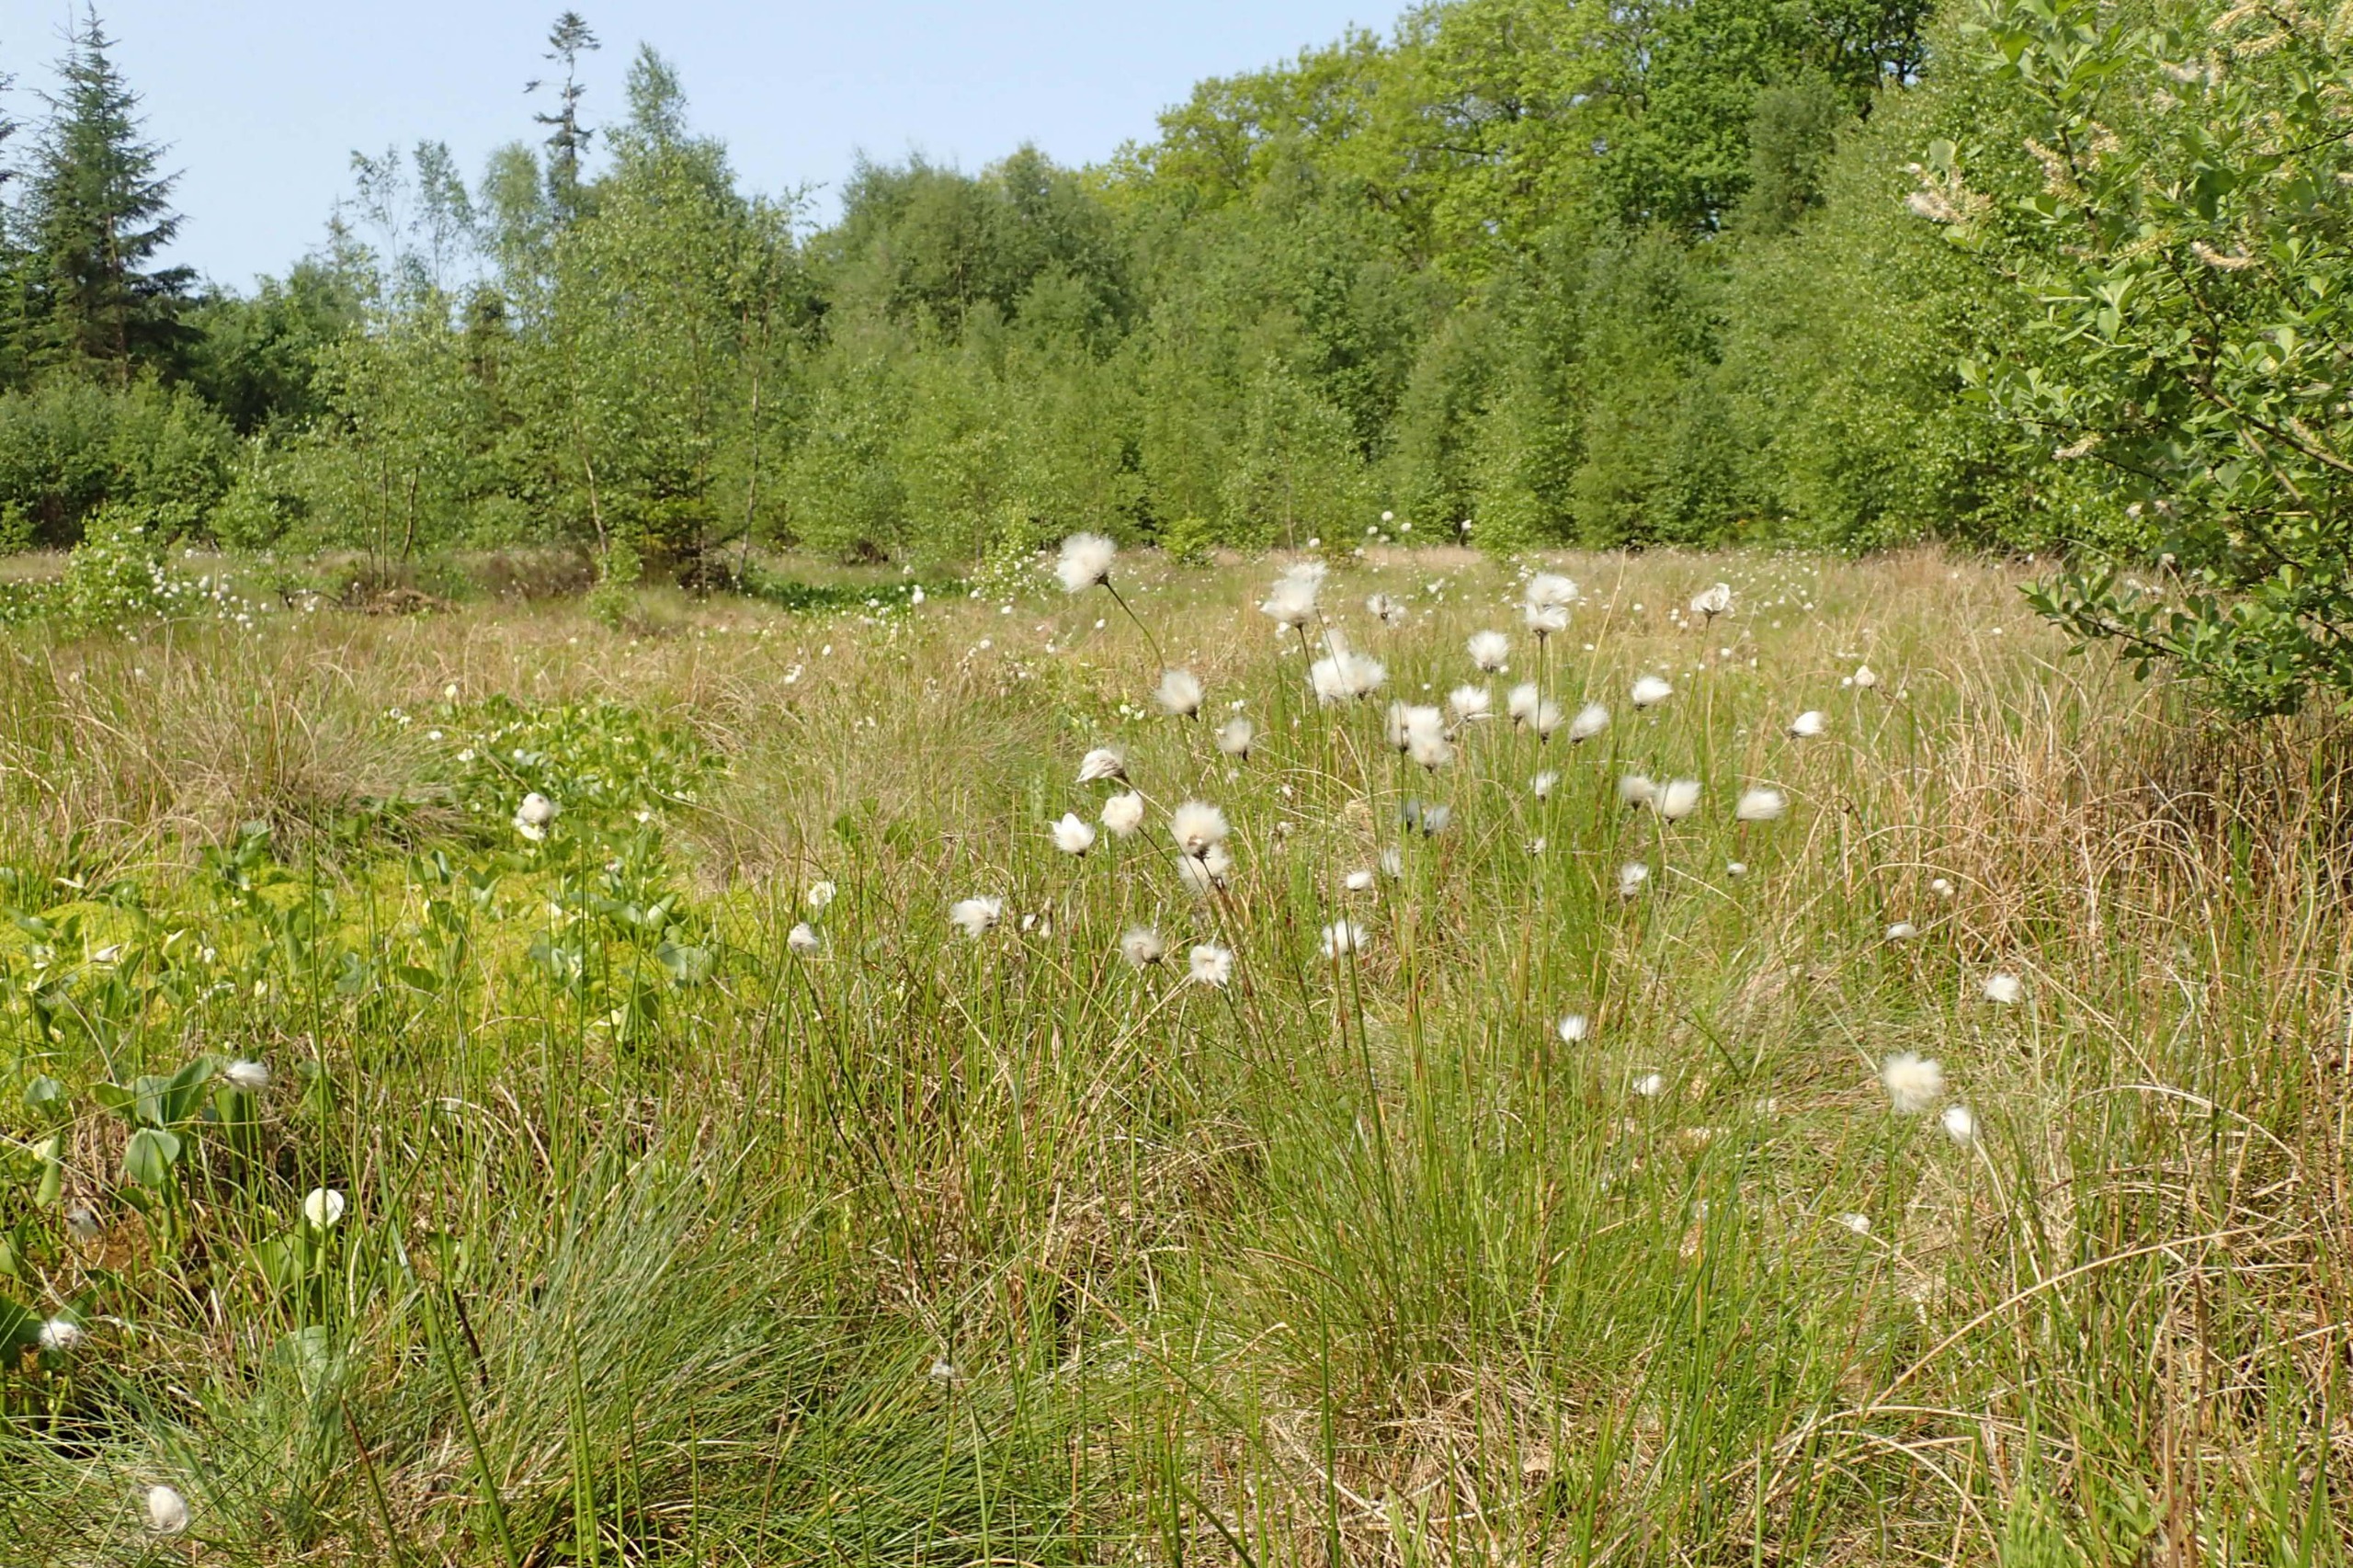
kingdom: Plantae
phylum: Tracheophyta
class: Liliopsida
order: Poales
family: Cyperaceae
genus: Eriophorum
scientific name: Eriophorum vaginatum
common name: Tue-kæruld
